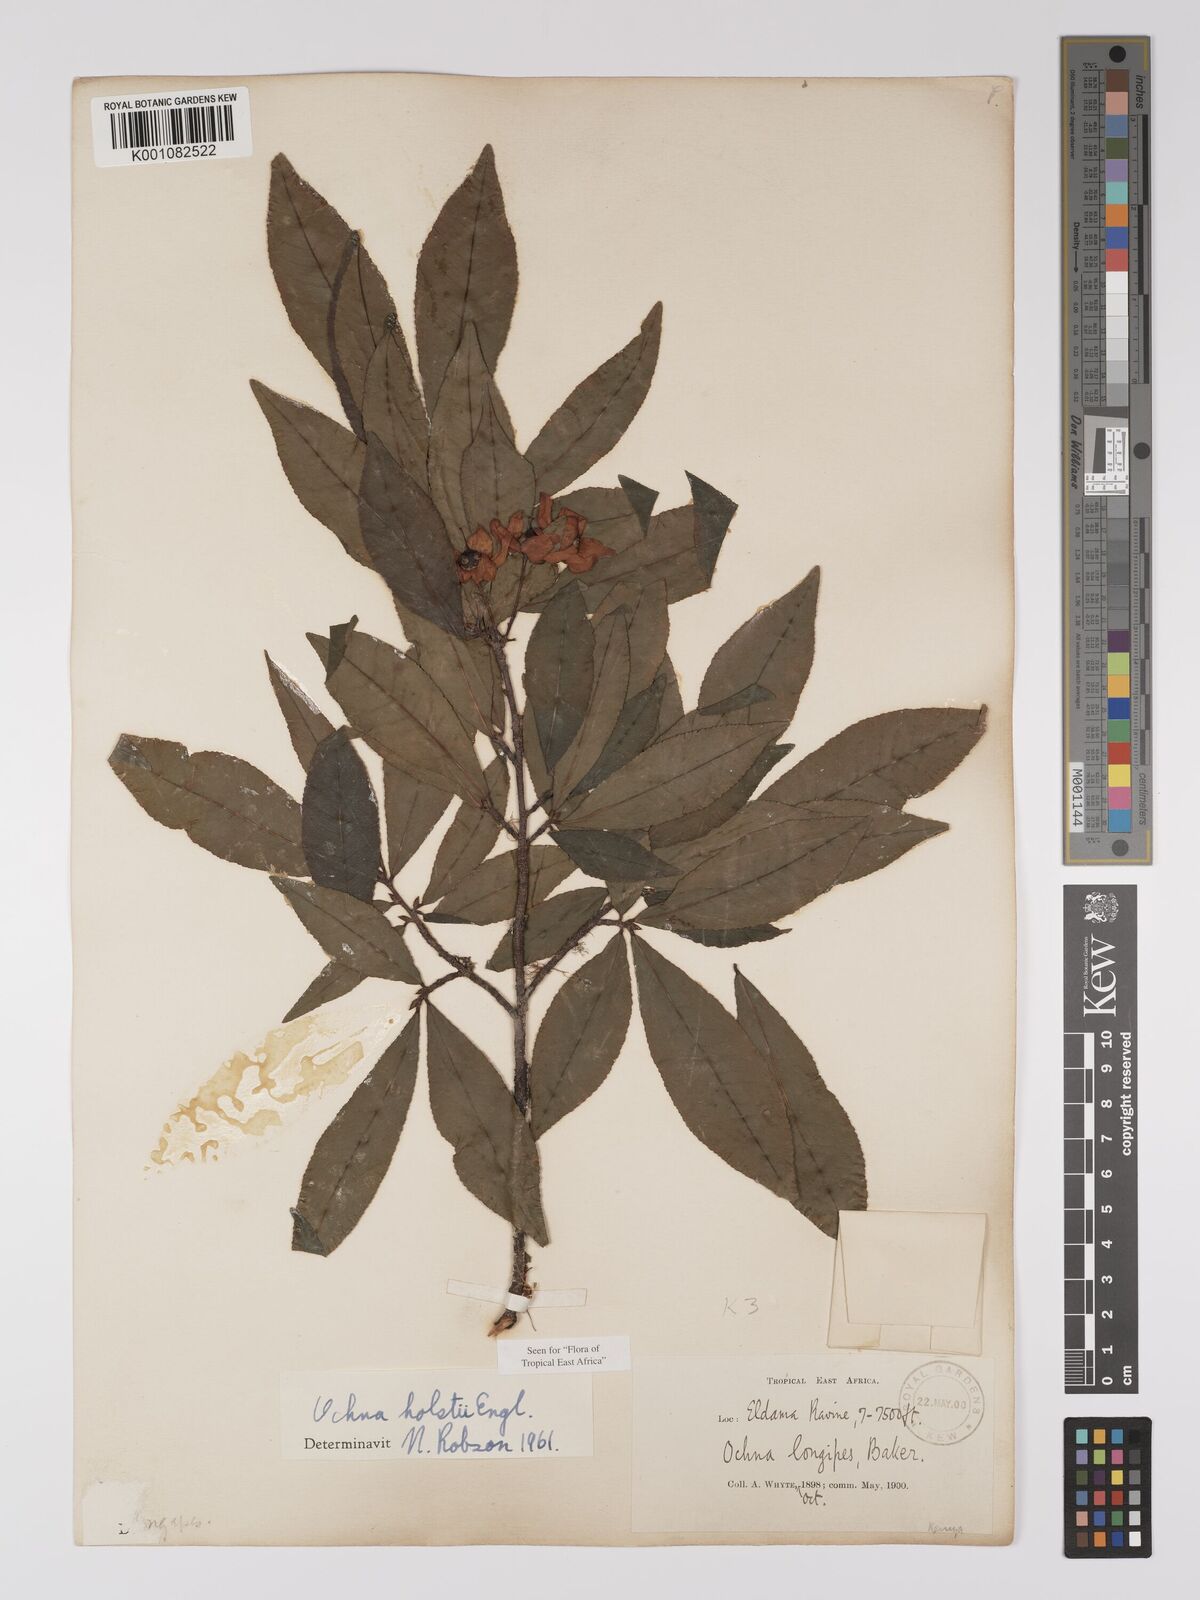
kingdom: Plantae
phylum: Tracheophyta
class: Magnoliopsida
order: Malpighiales
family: Ochnaceae
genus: Ochna
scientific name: Ochna holstii
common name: Red ironwood
